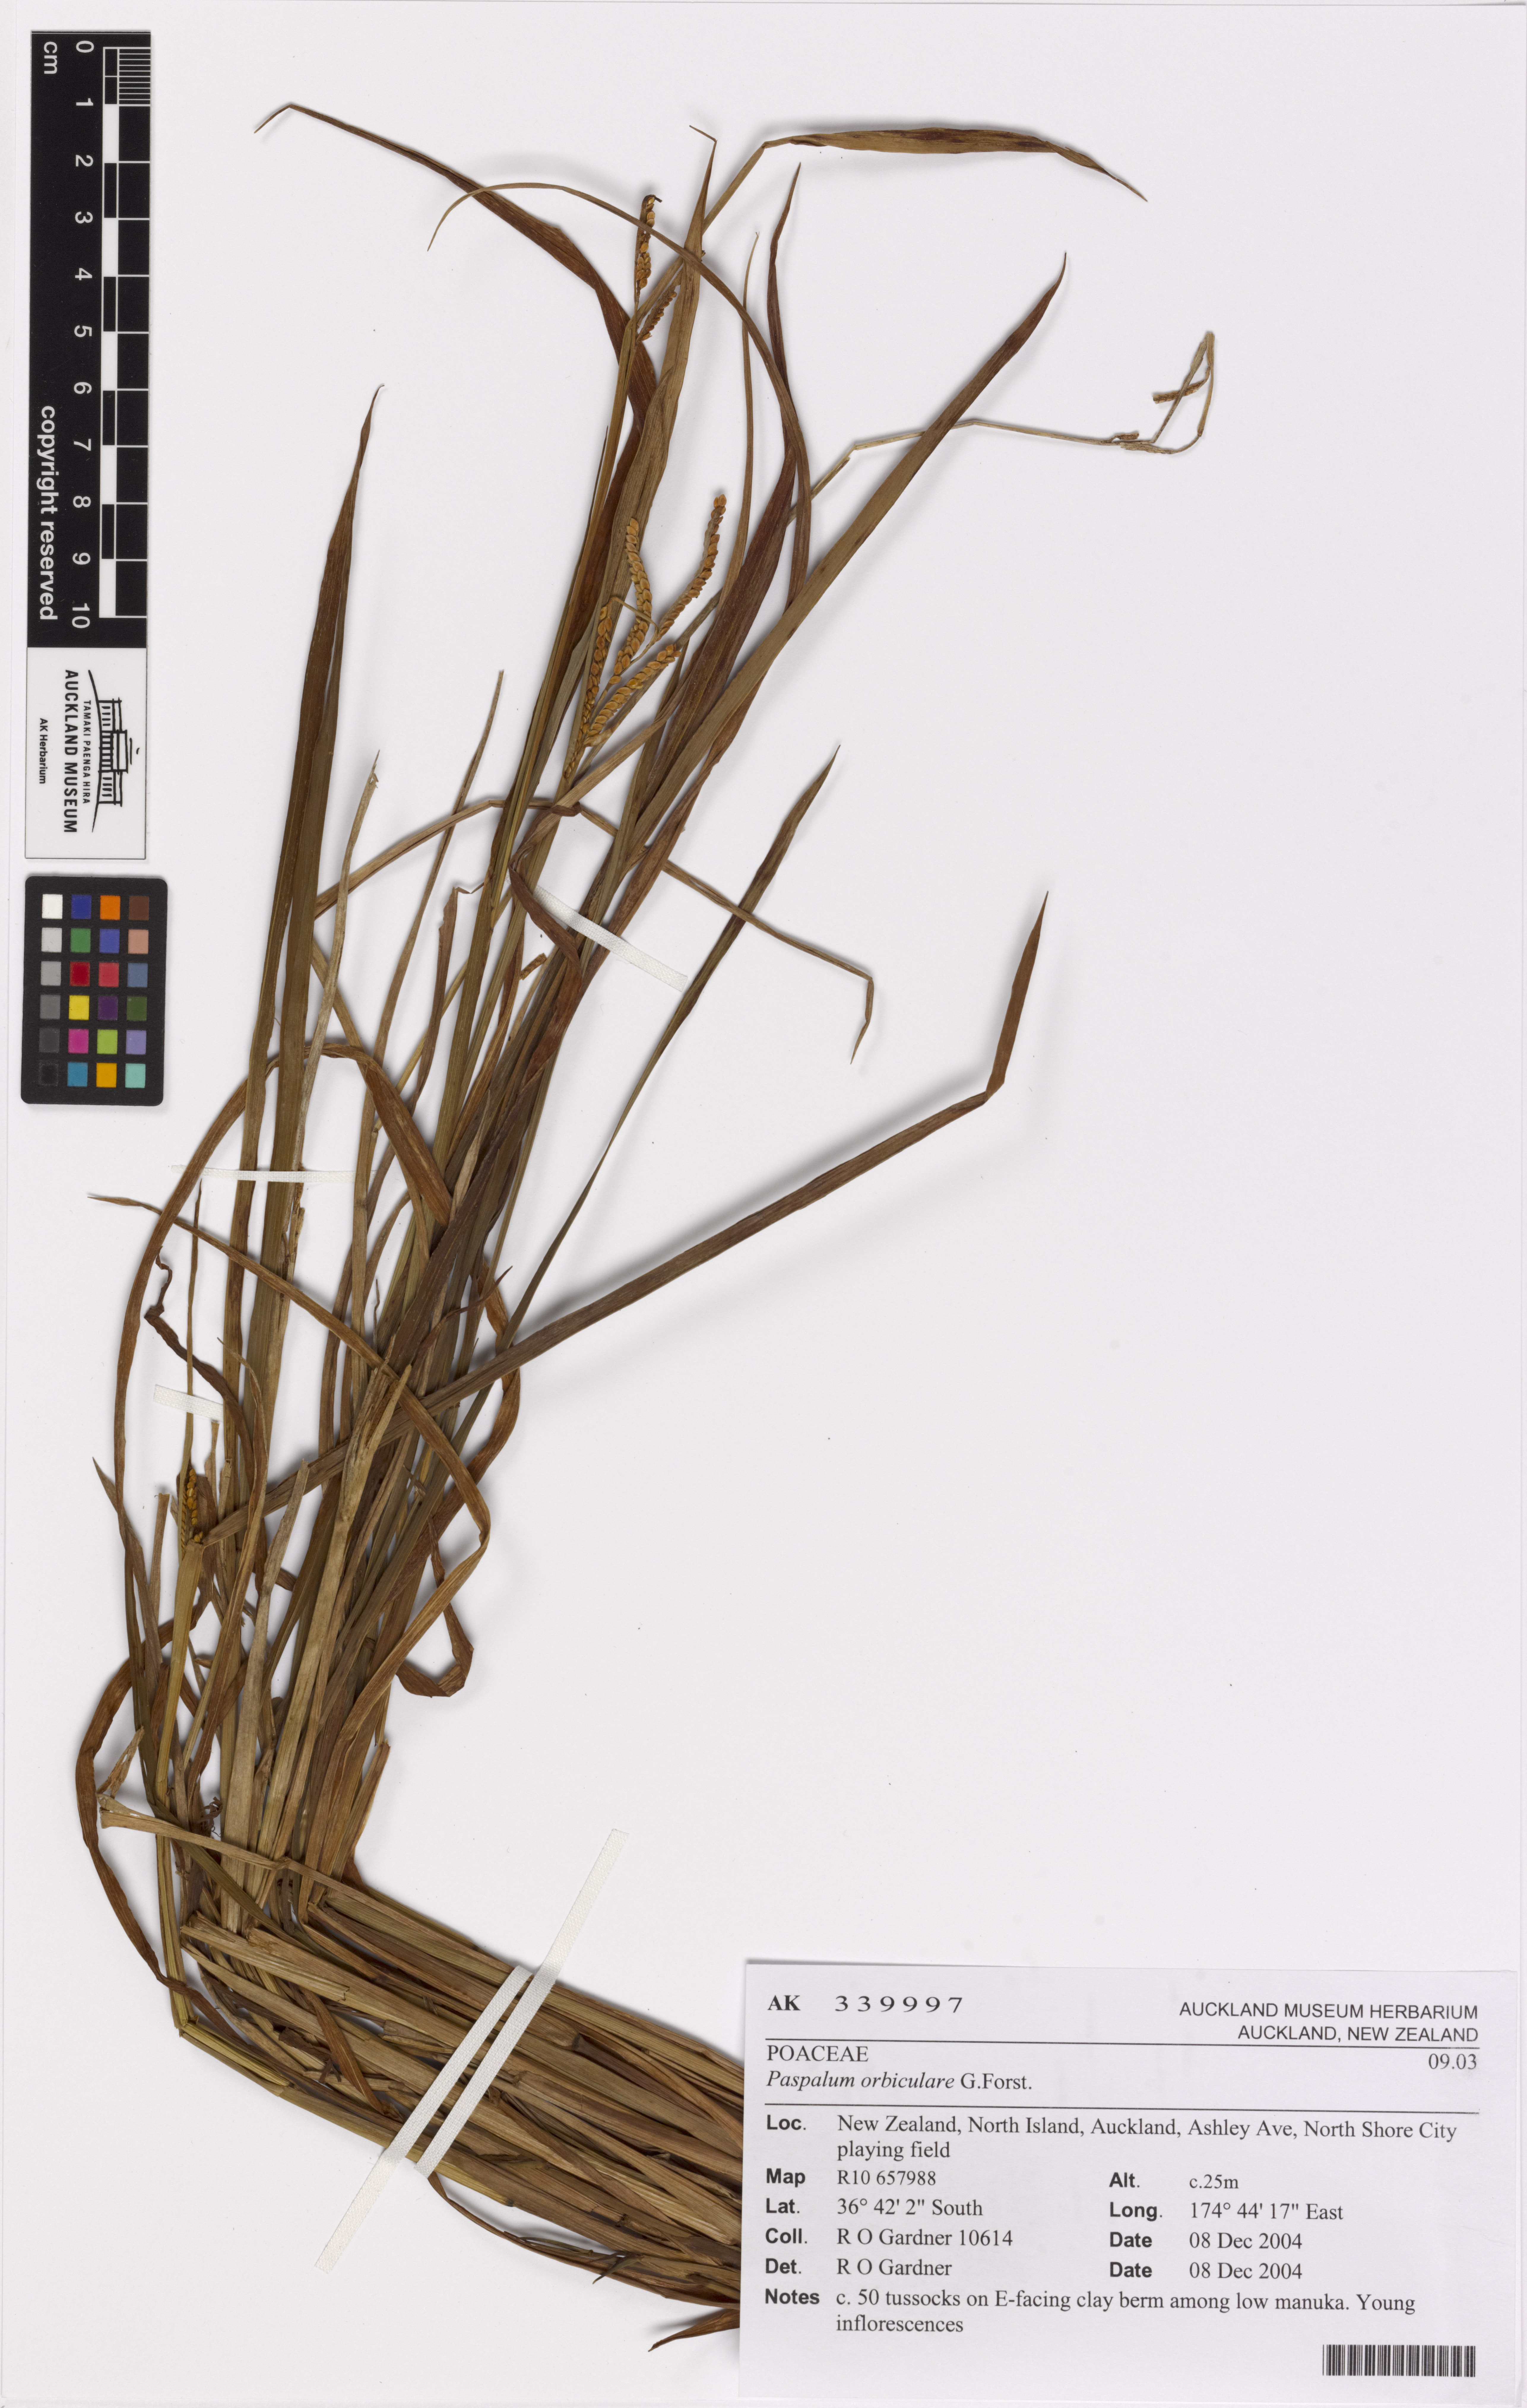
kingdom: Plantae
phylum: Tracheophyta
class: Liliopsida
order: Poales
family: Poaceae
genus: Paspalum
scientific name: Paspalum orbiculare
